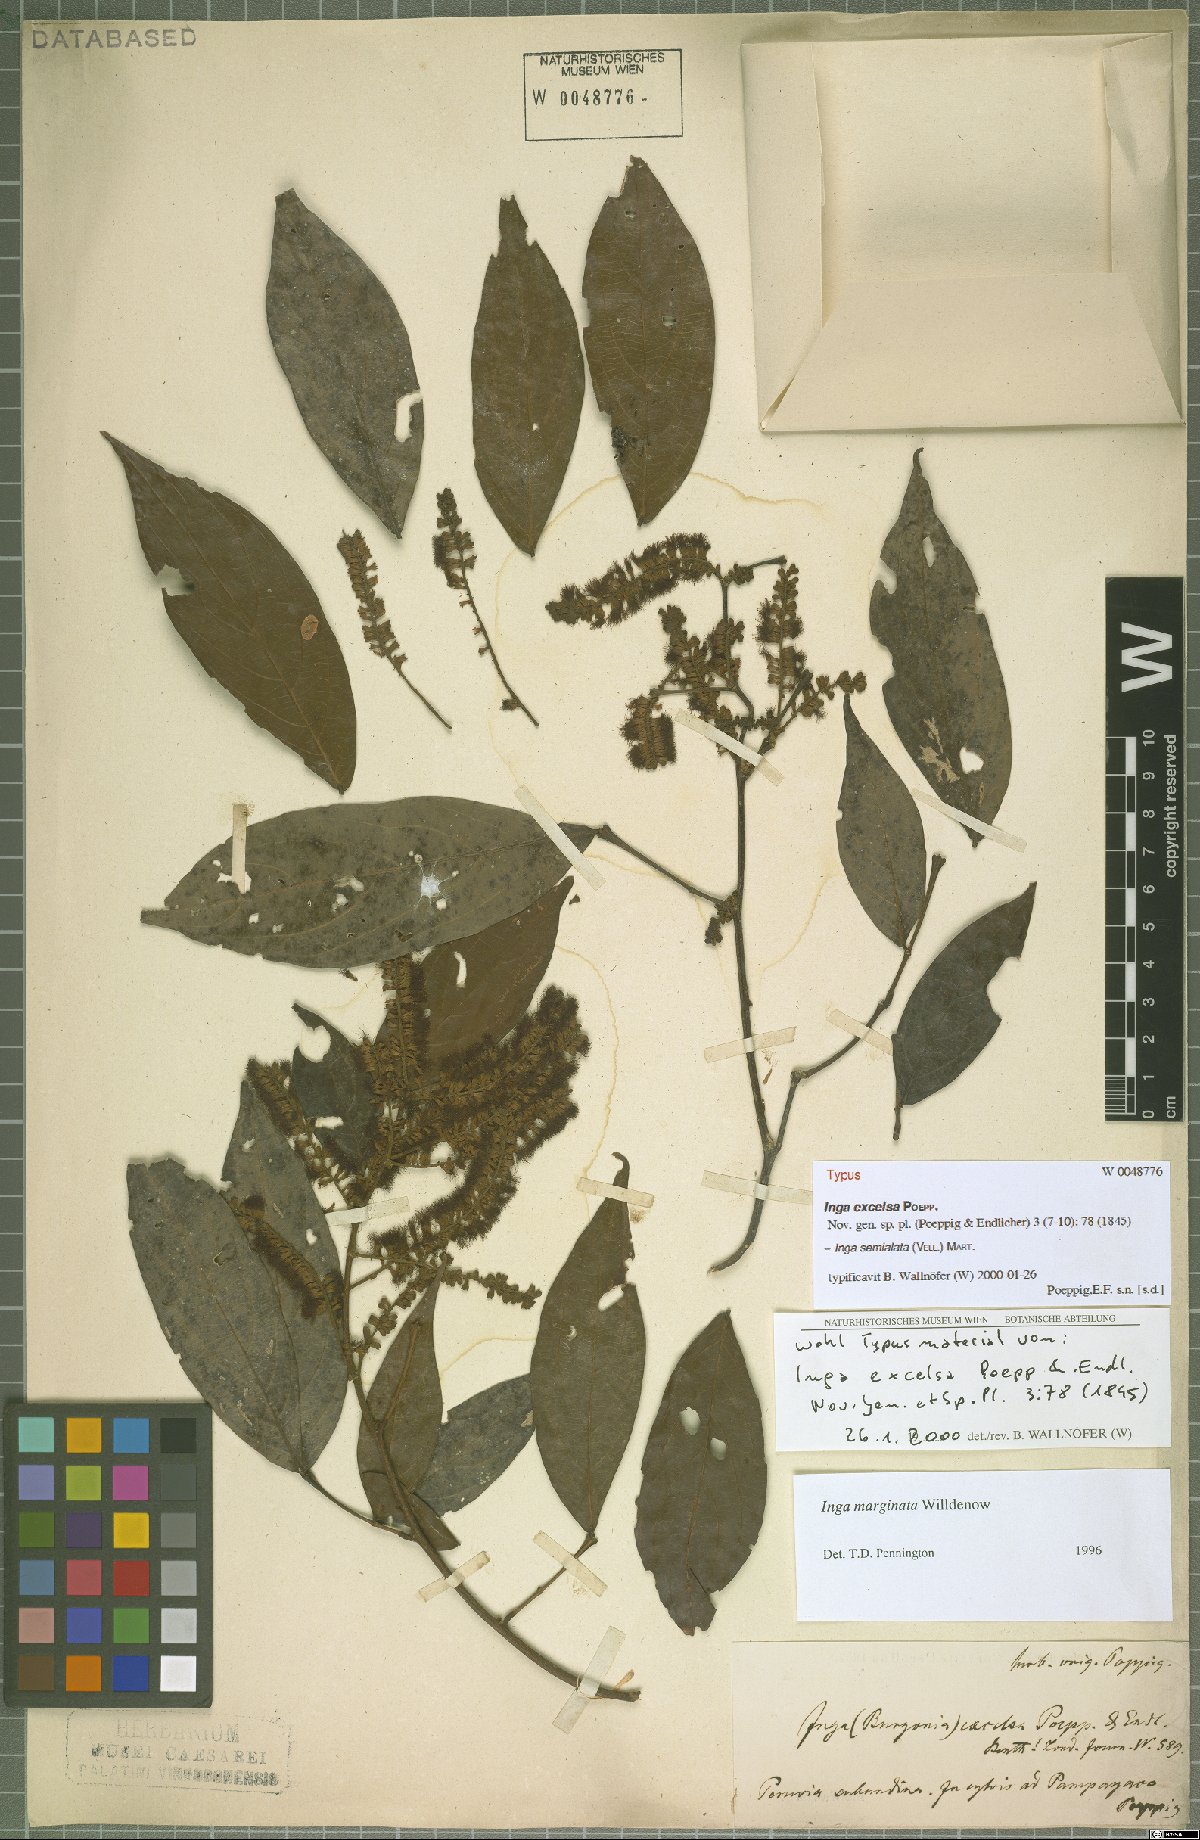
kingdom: Plantae
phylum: Tracheophyta
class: Magnoliopsida
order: Fabales
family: Fabaceae
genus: Inga
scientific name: Inga marginata
